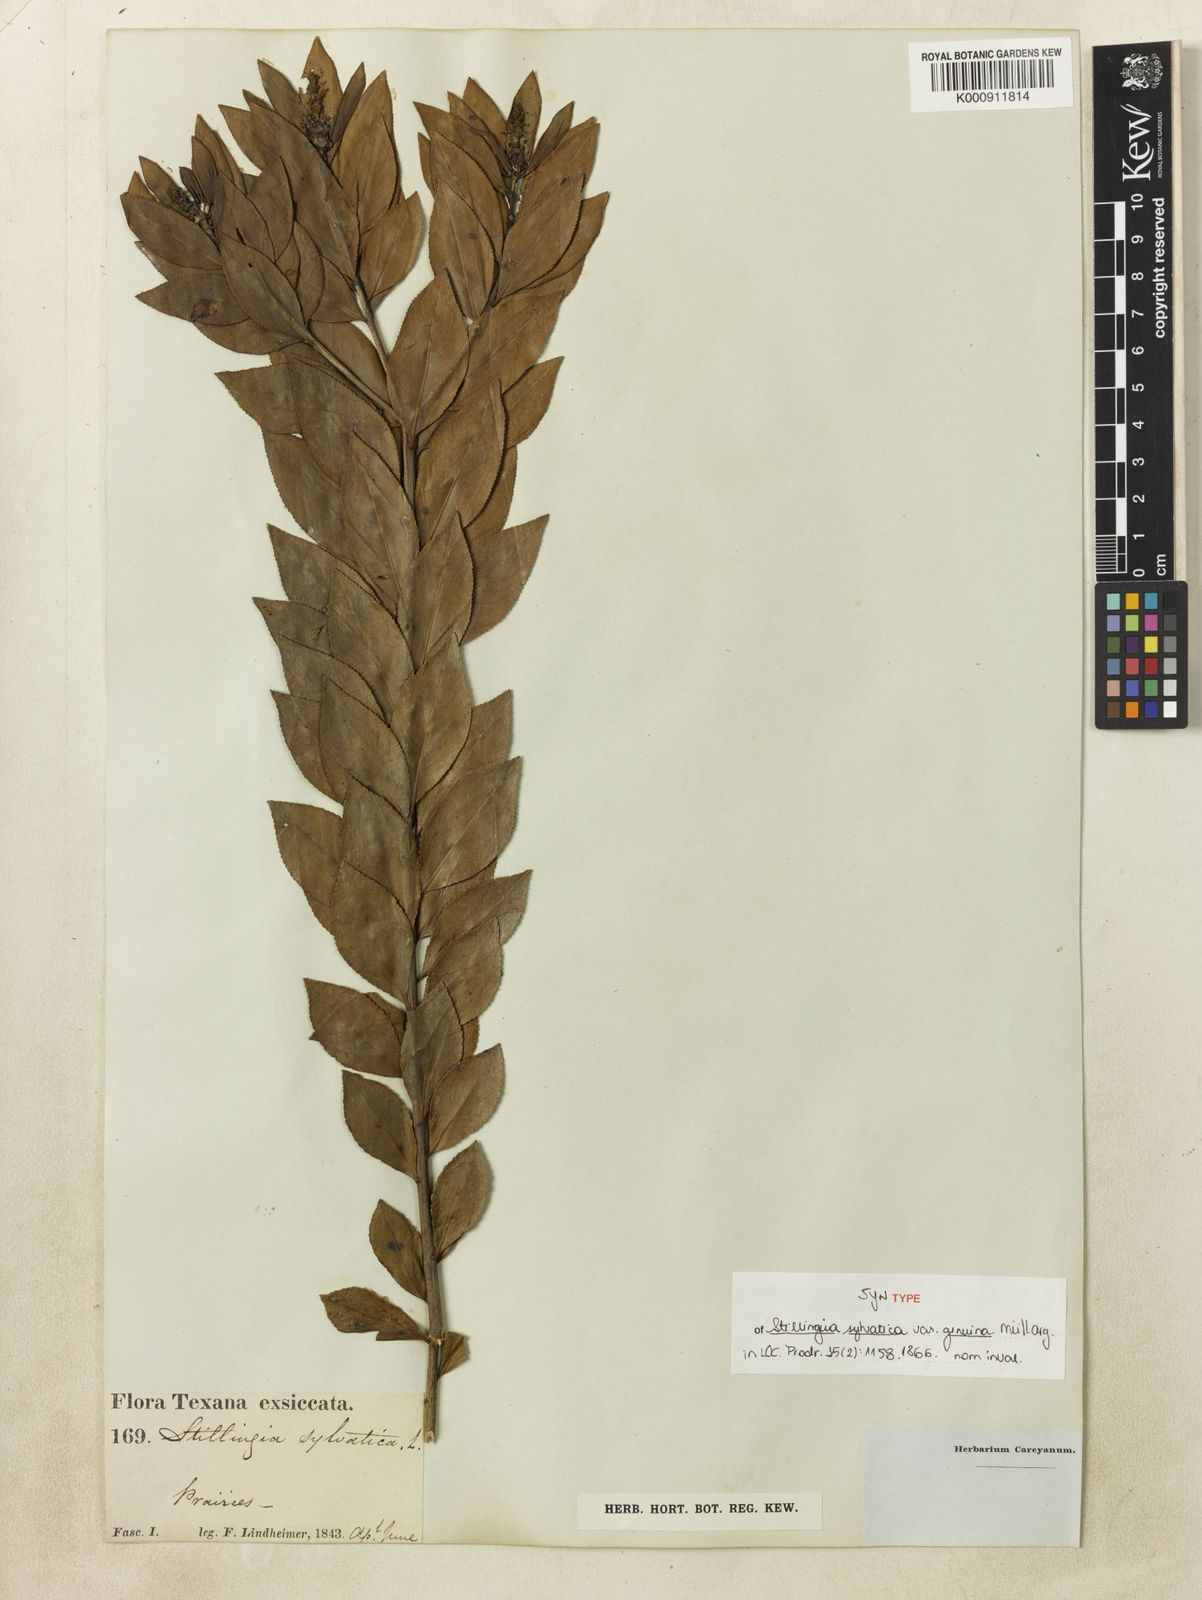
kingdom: Plantae
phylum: Tracheophyta
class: Magnoliopsida
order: Malpighiales
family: Euphorbiaceae
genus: Stillingia
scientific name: Stillingia sylvatica
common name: Queen's-delight
